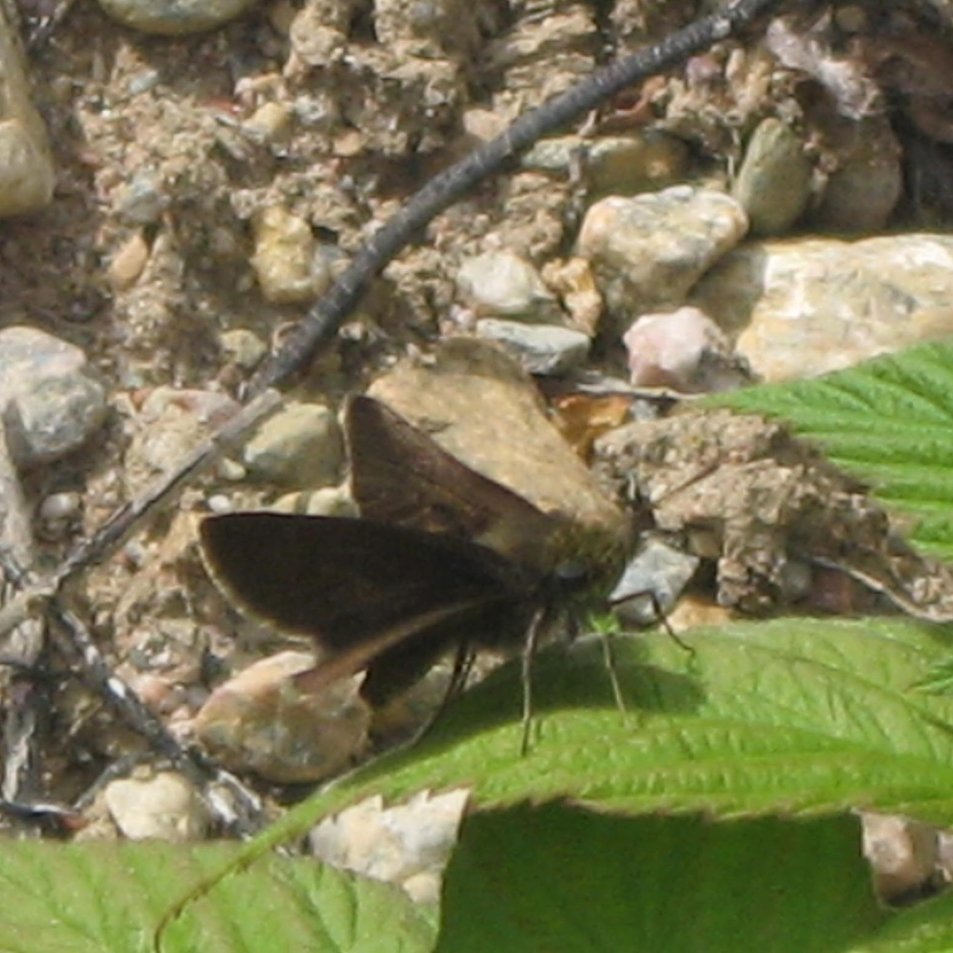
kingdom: Animalia
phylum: Arthropoda
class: Insecta
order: Lepidoptera
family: Hesperiidae
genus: Euphyes
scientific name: Euphyes vestris
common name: Dun Skipper
